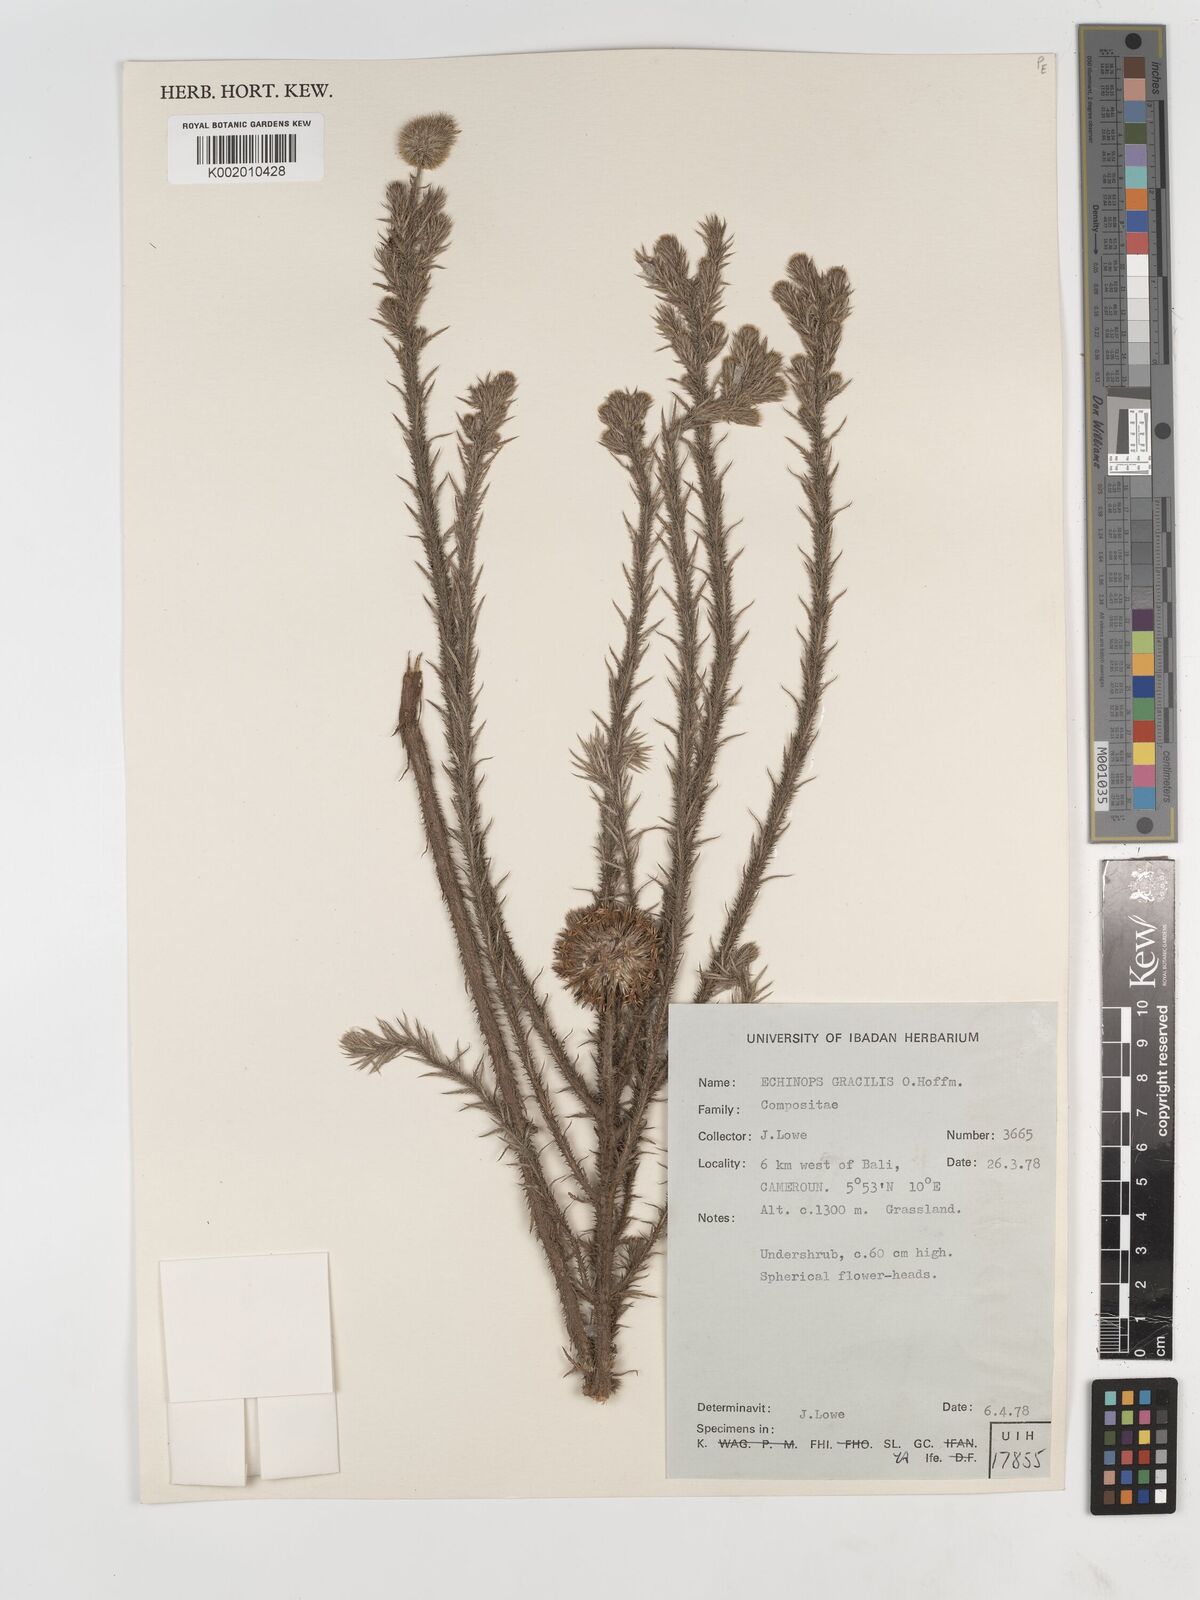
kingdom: Plantae
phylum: Tracheophyta
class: Magnoliopsida
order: Asterales
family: Asteraceae
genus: Echinops
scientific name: Echinops gracilis
